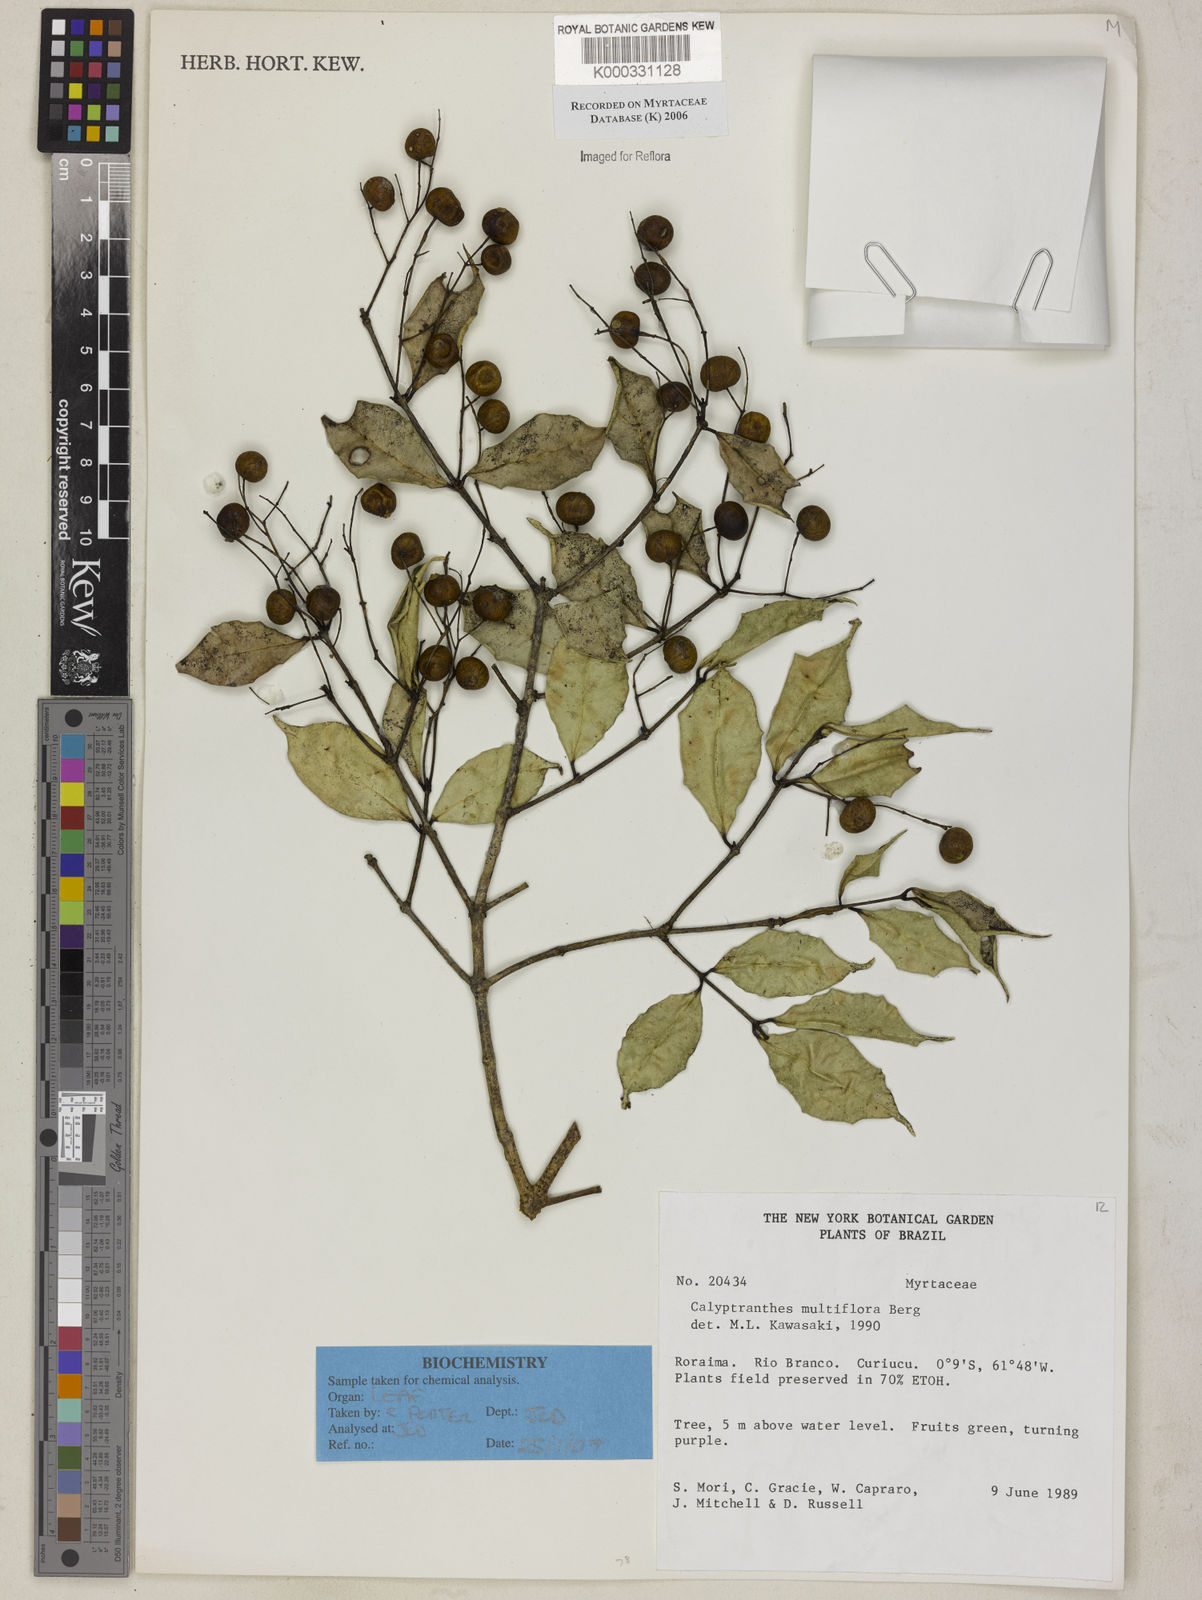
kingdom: Plantae
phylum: Tracheophyta
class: Magnoliopsida
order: Myrtales
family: Myrtaceae
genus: Myrcia
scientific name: Myrcia aulomyrcioides
